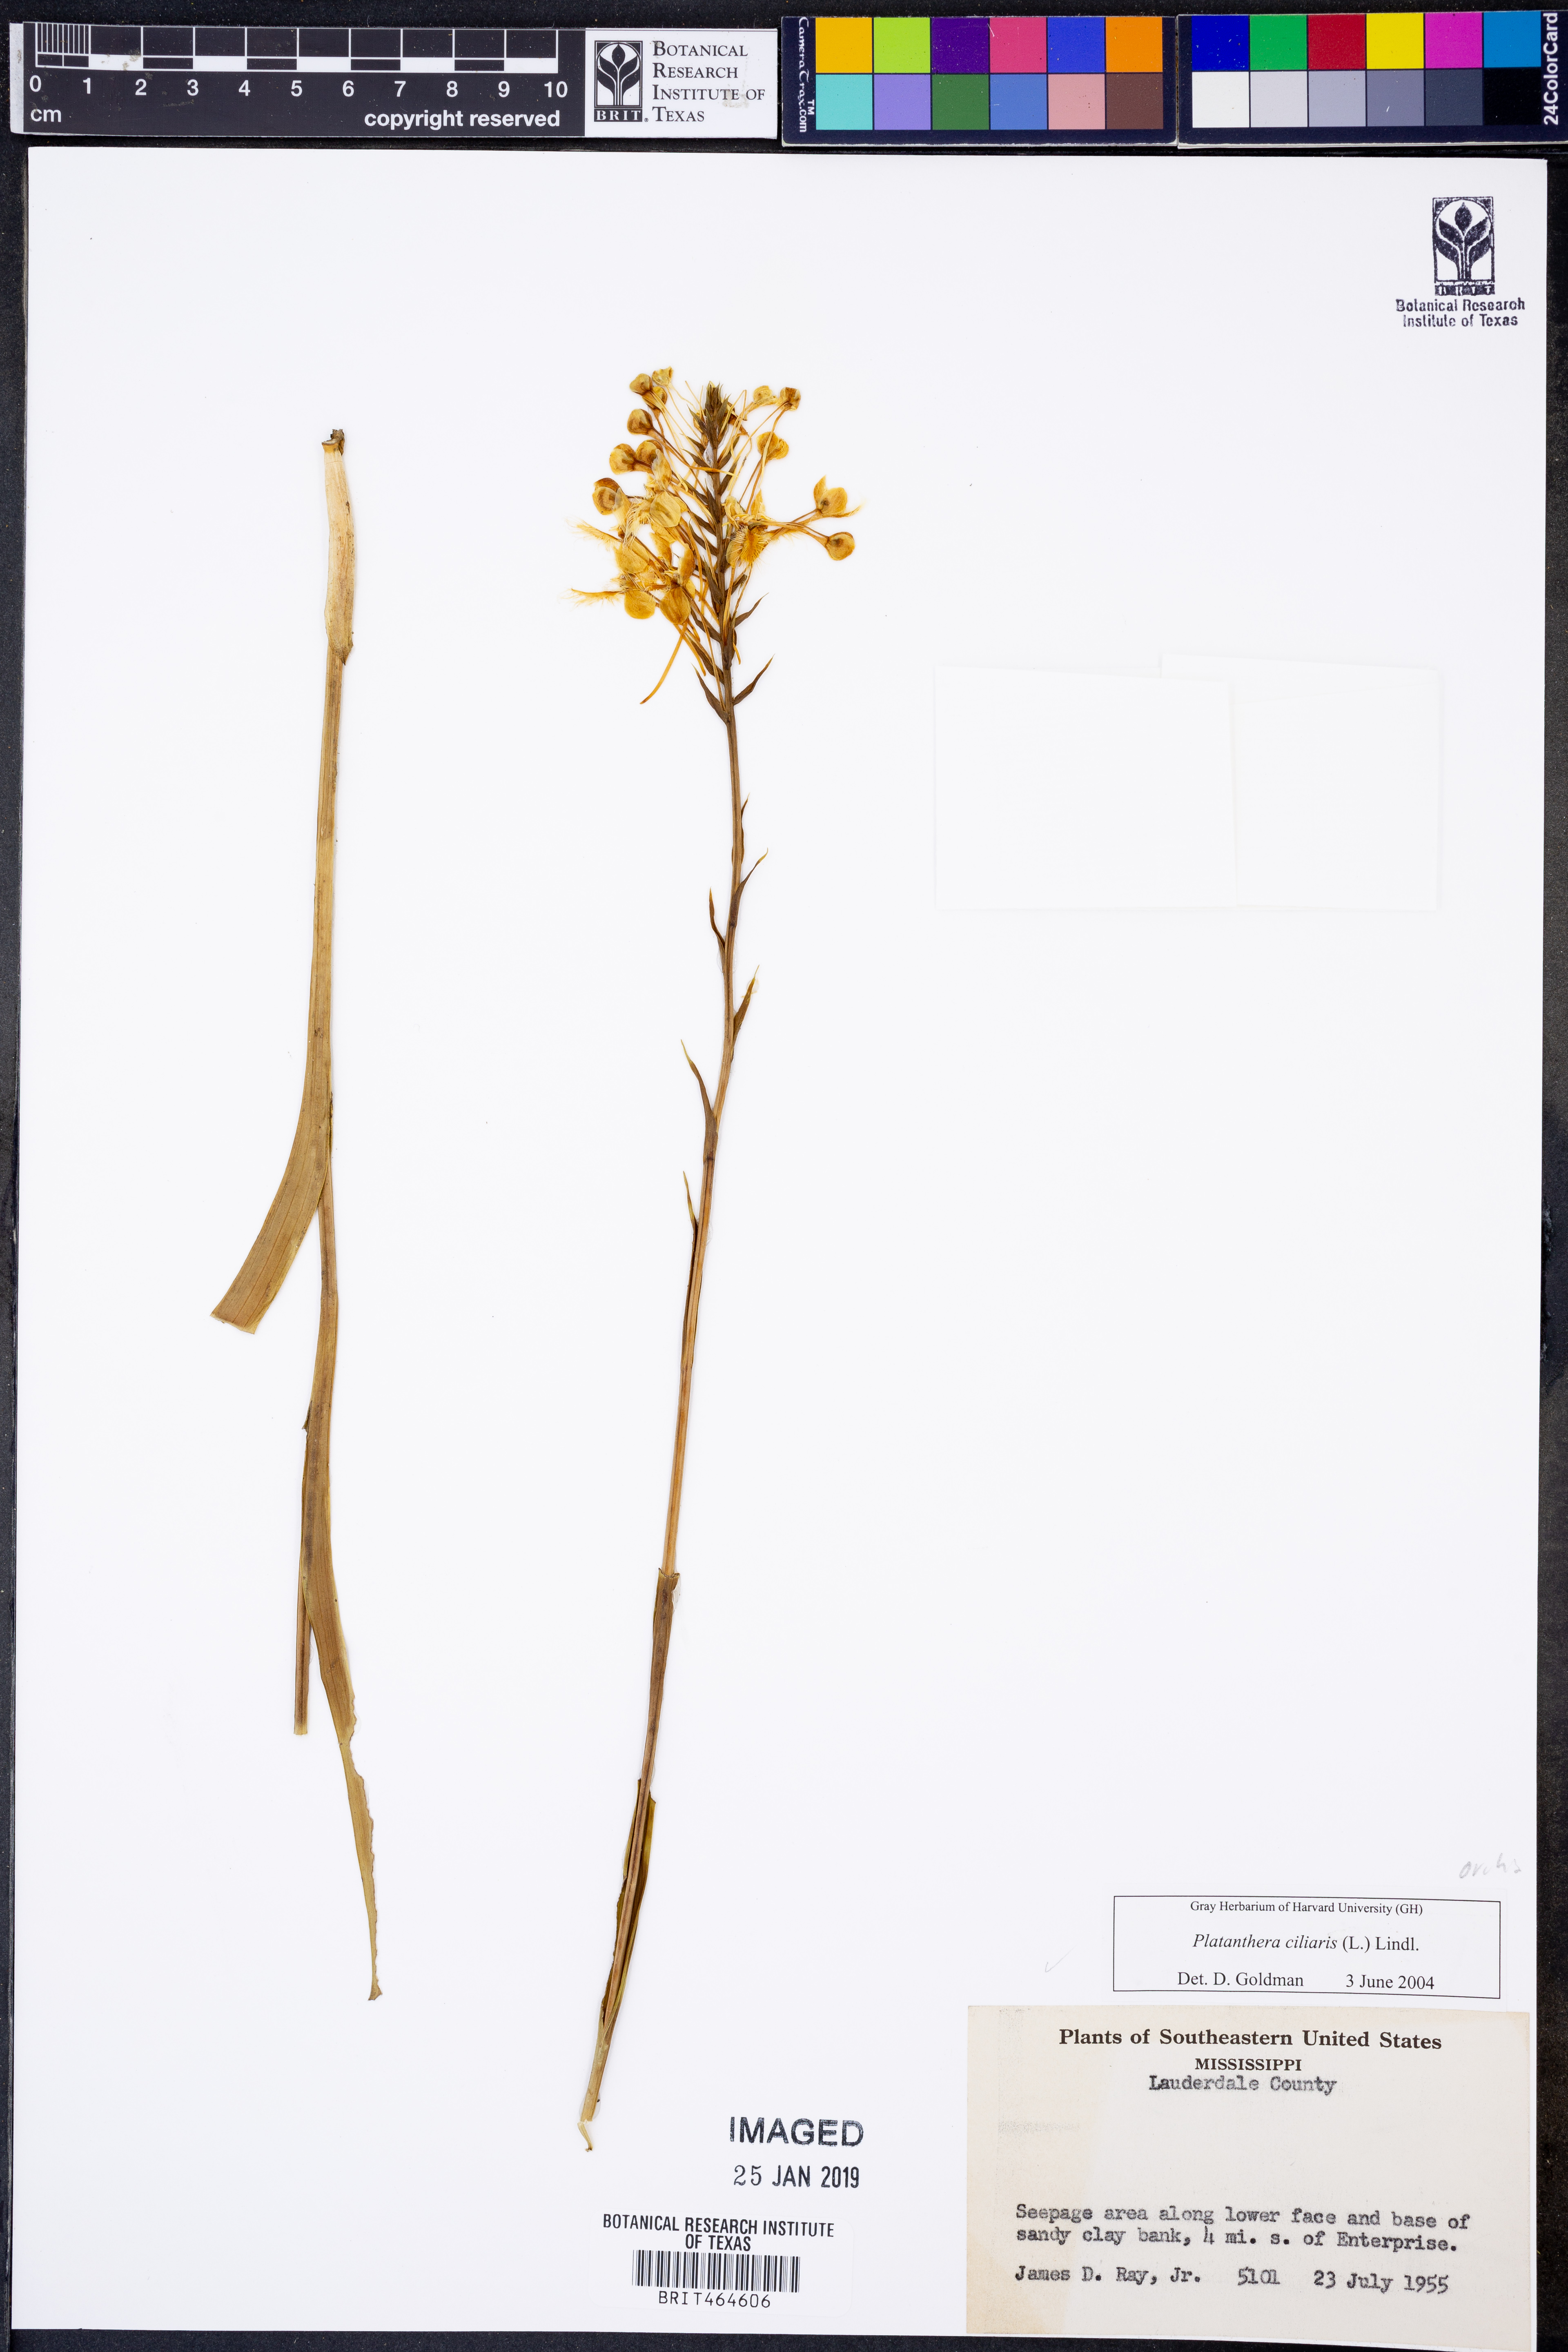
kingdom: Plantae
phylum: Tracheophyta
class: Liliopsida
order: Asparagales
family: Orchidaceae
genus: Platanthera
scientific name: Platanthera ciliaris
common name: Yellow fringed orchid
